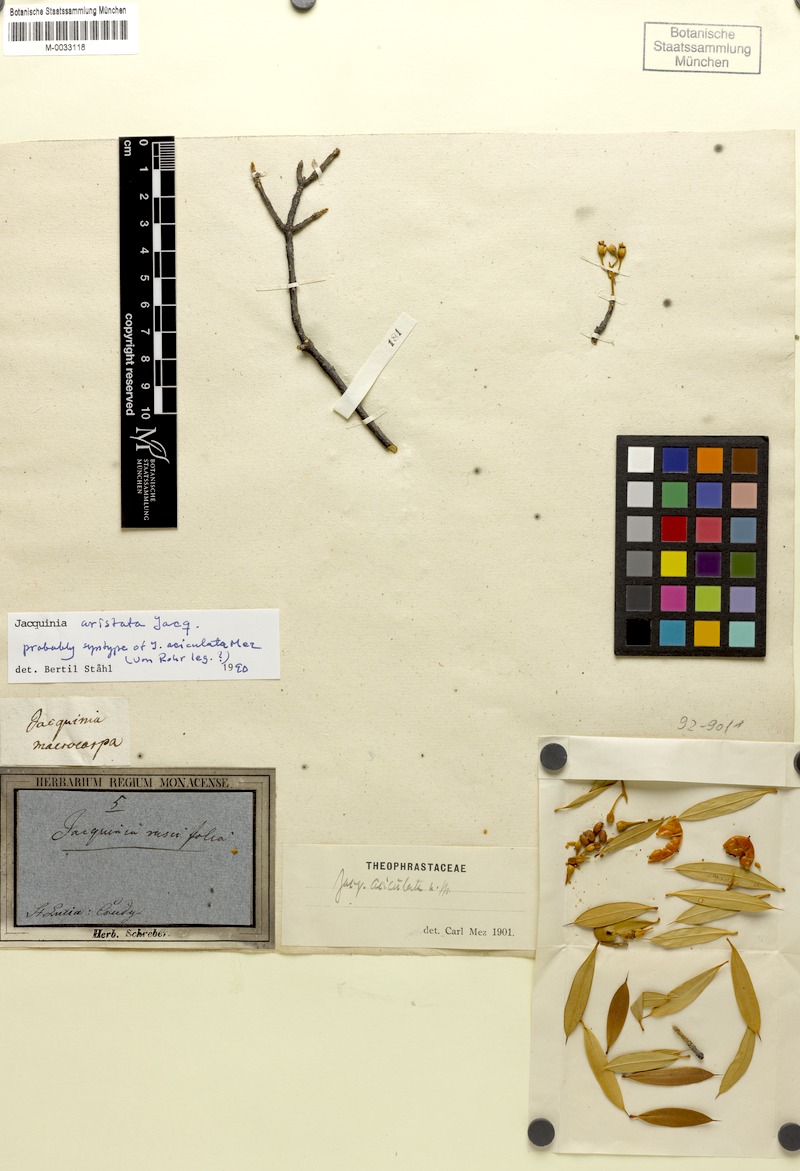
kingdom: Plantae
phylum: Tracheophyta
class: Magnoliopsida
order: Ericales
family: Primulaceae
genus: Bonellia
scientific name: Bonellia frutescens
